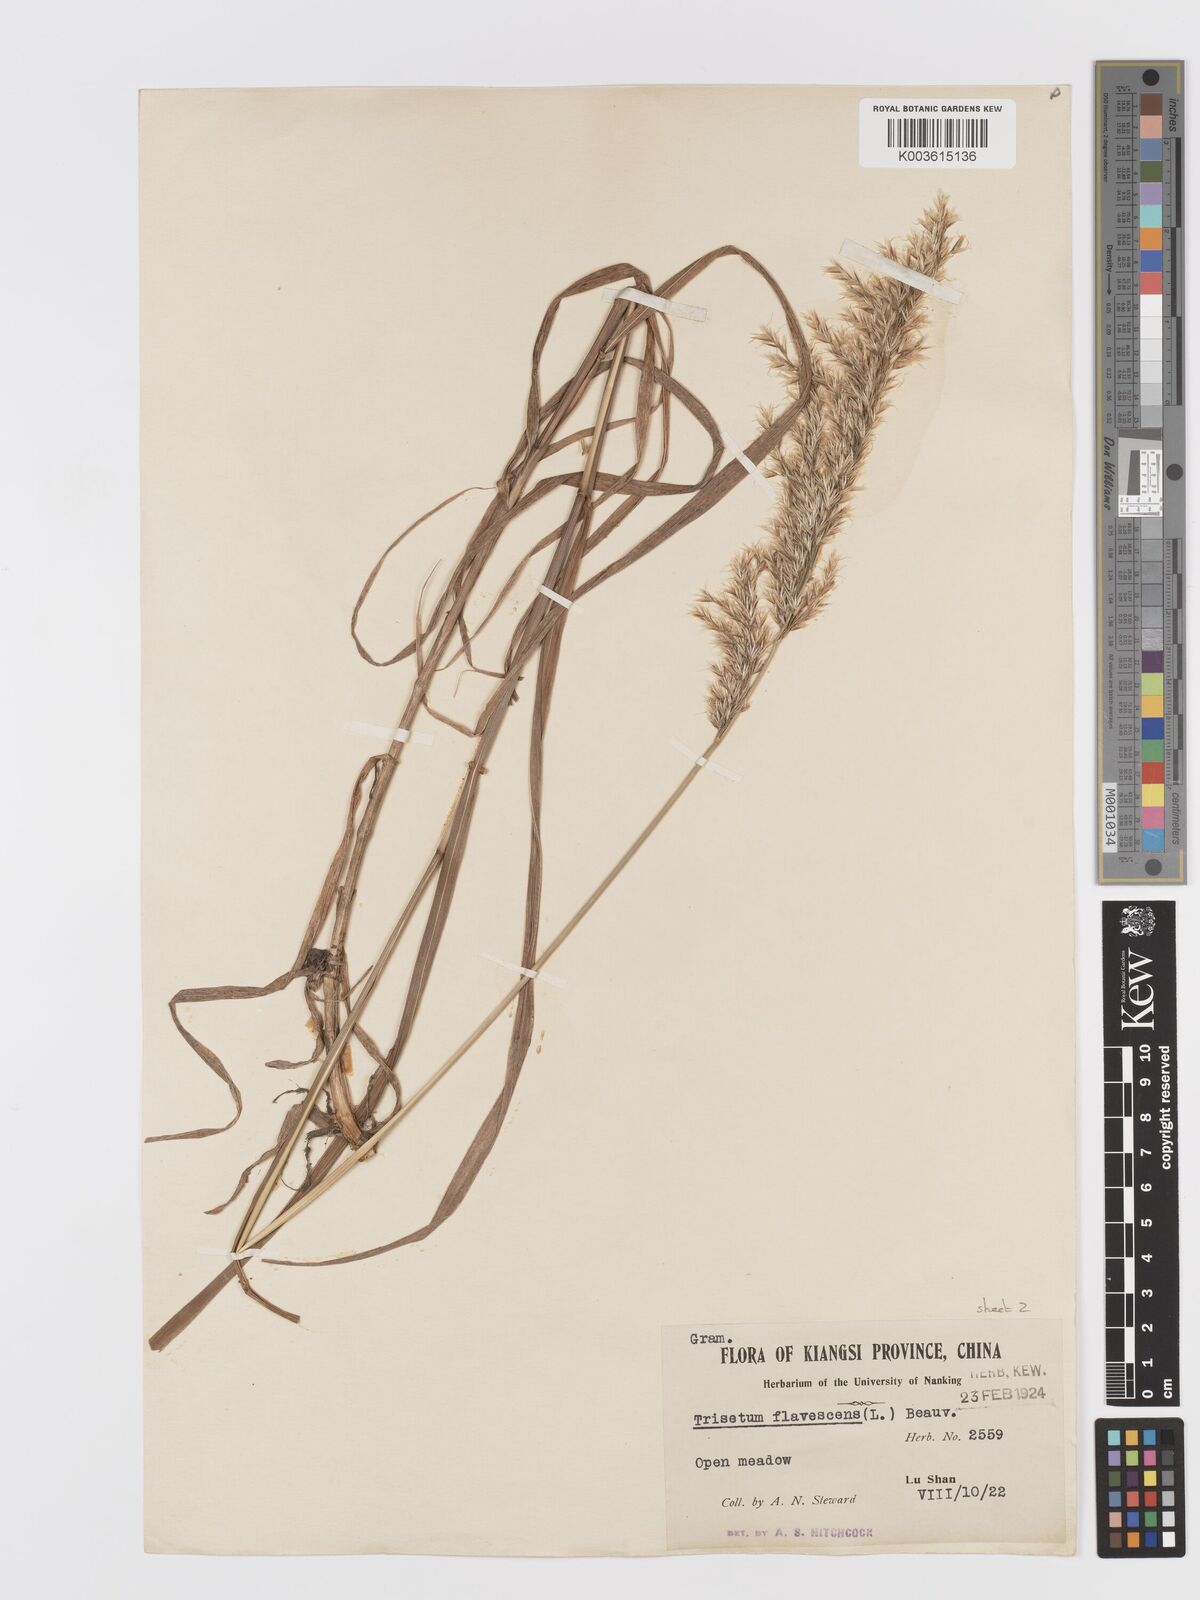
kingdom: Plantae
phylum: Tracheophyta
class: Liliopsida
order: Poales
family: Poaceae
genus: Sibirotrisetum
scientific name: Sibirotrisetum henryi
